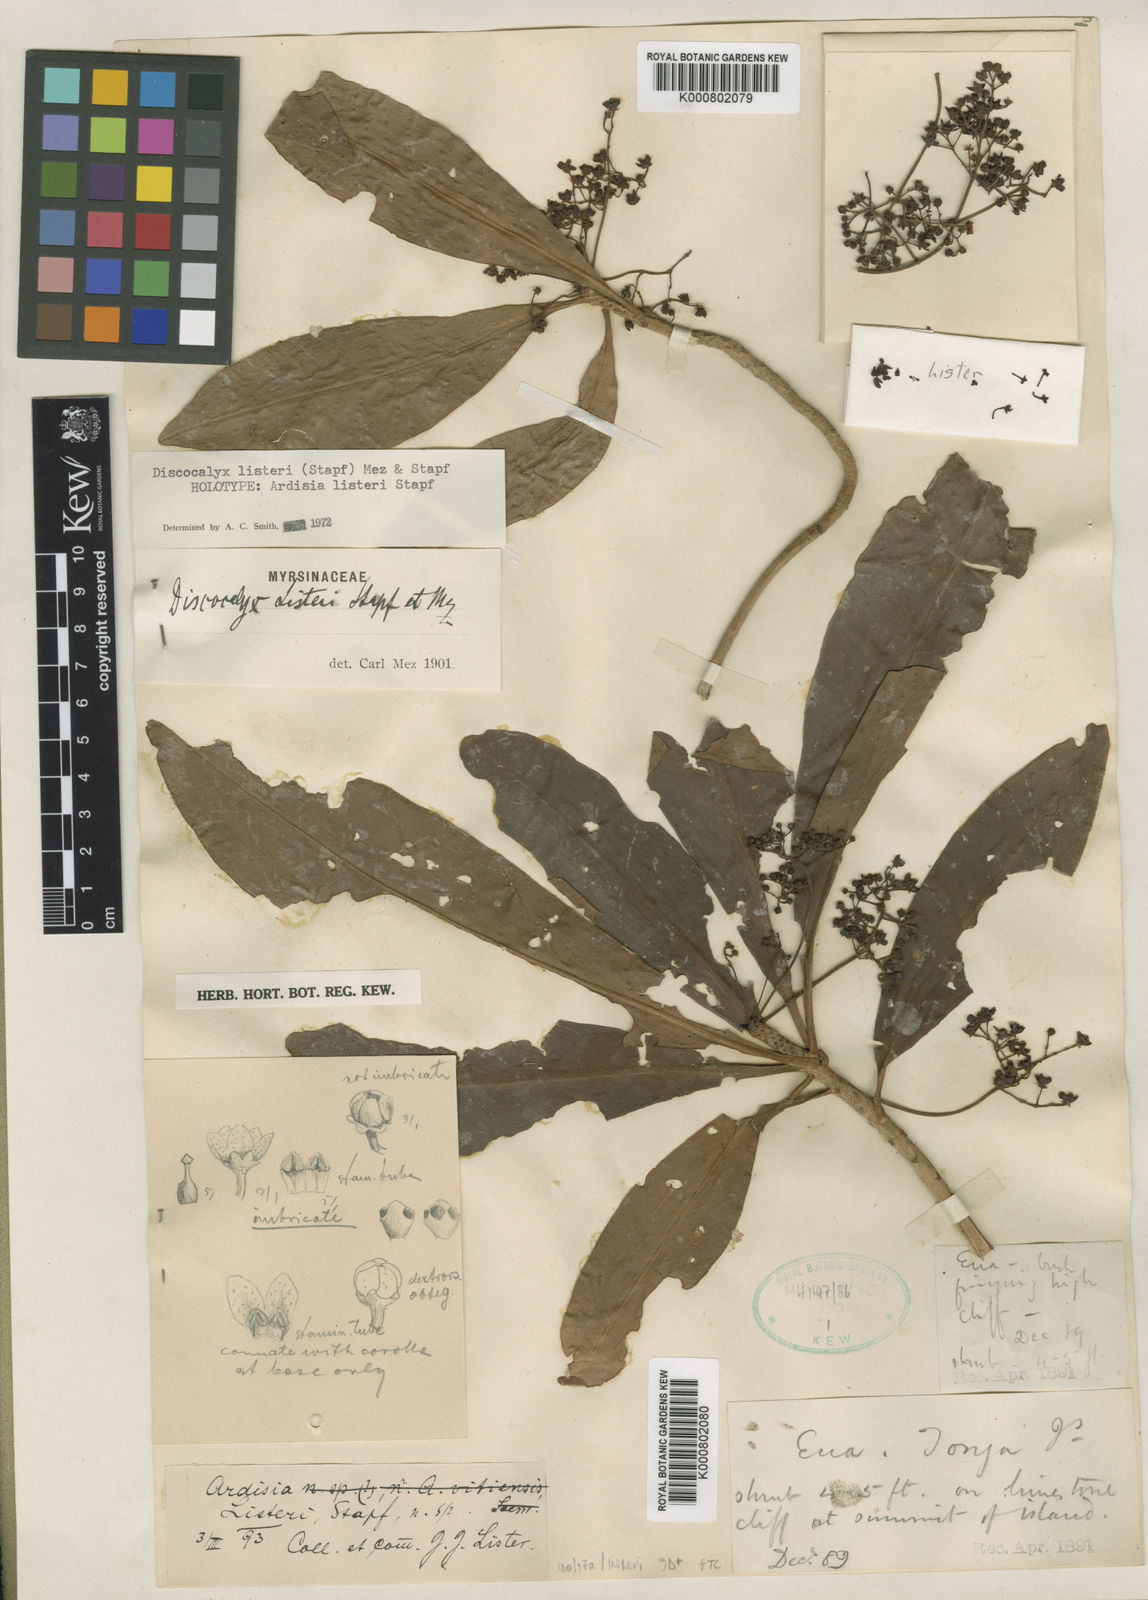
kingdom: Plantae
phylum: Tracheophyta
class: Magnoliopsida
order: Ericales
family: Primulaceae
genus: Discocalyx
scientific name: Discocalyx listeri
